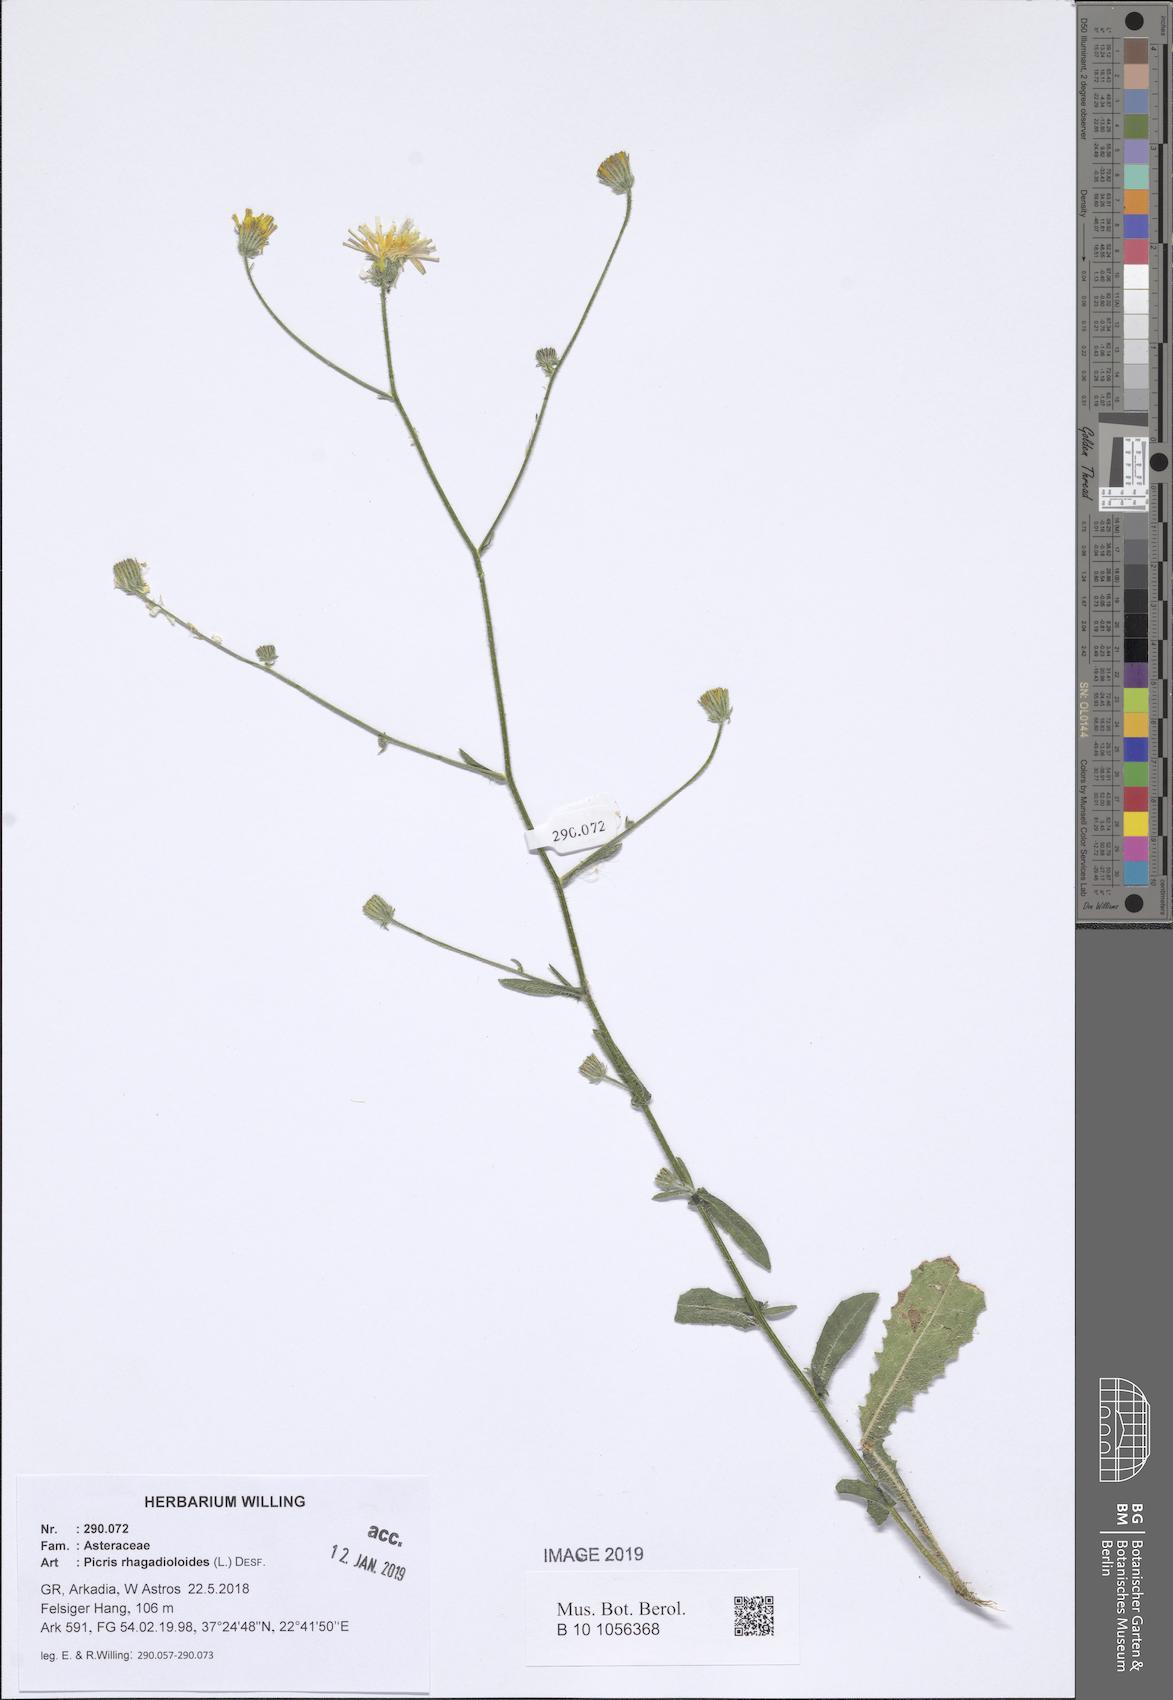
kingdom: Plantae
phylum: Tracheophyta
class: Magnoliopsida
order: Asterales
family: Asteraceae
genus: Picris
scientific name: Picris rhagadioloides
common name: Oxtongue
